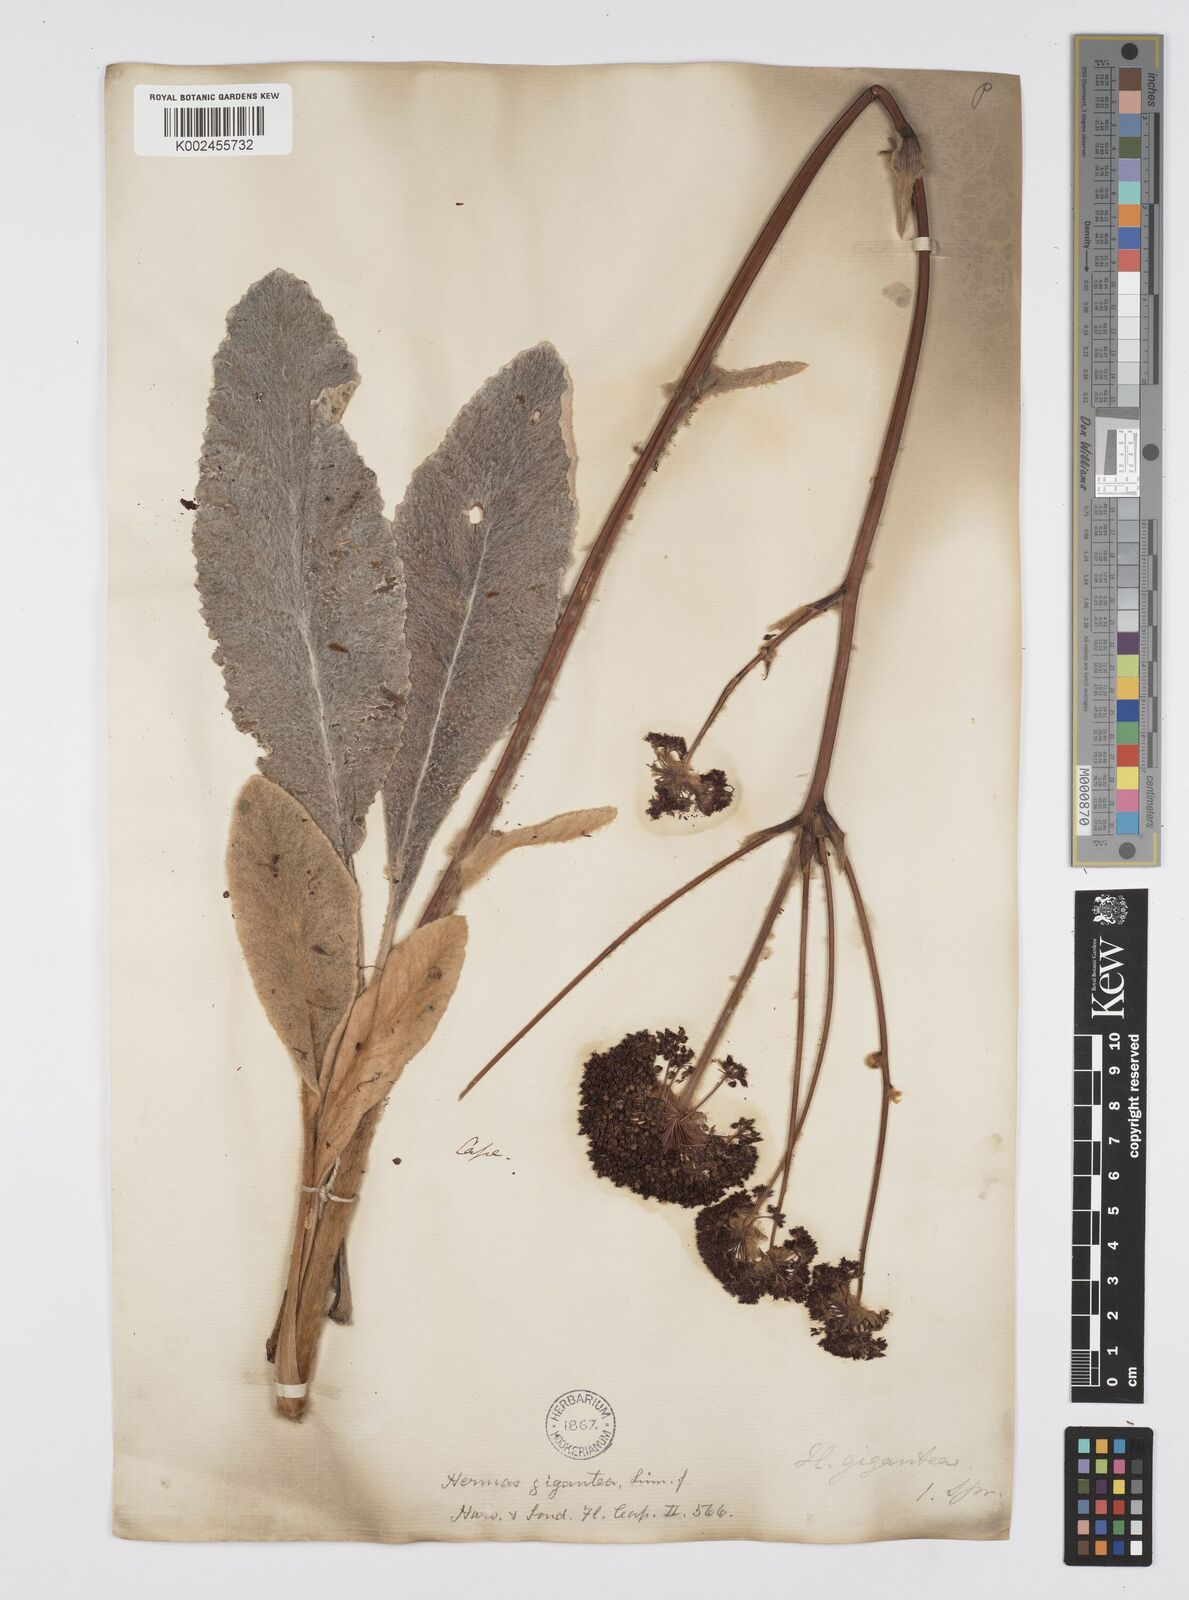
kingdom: Plantae
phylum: Tracheophyta
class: Magnoliopsida
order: Apiales
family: Apiaceae
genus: Hermas
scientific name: Hermas gigantea
